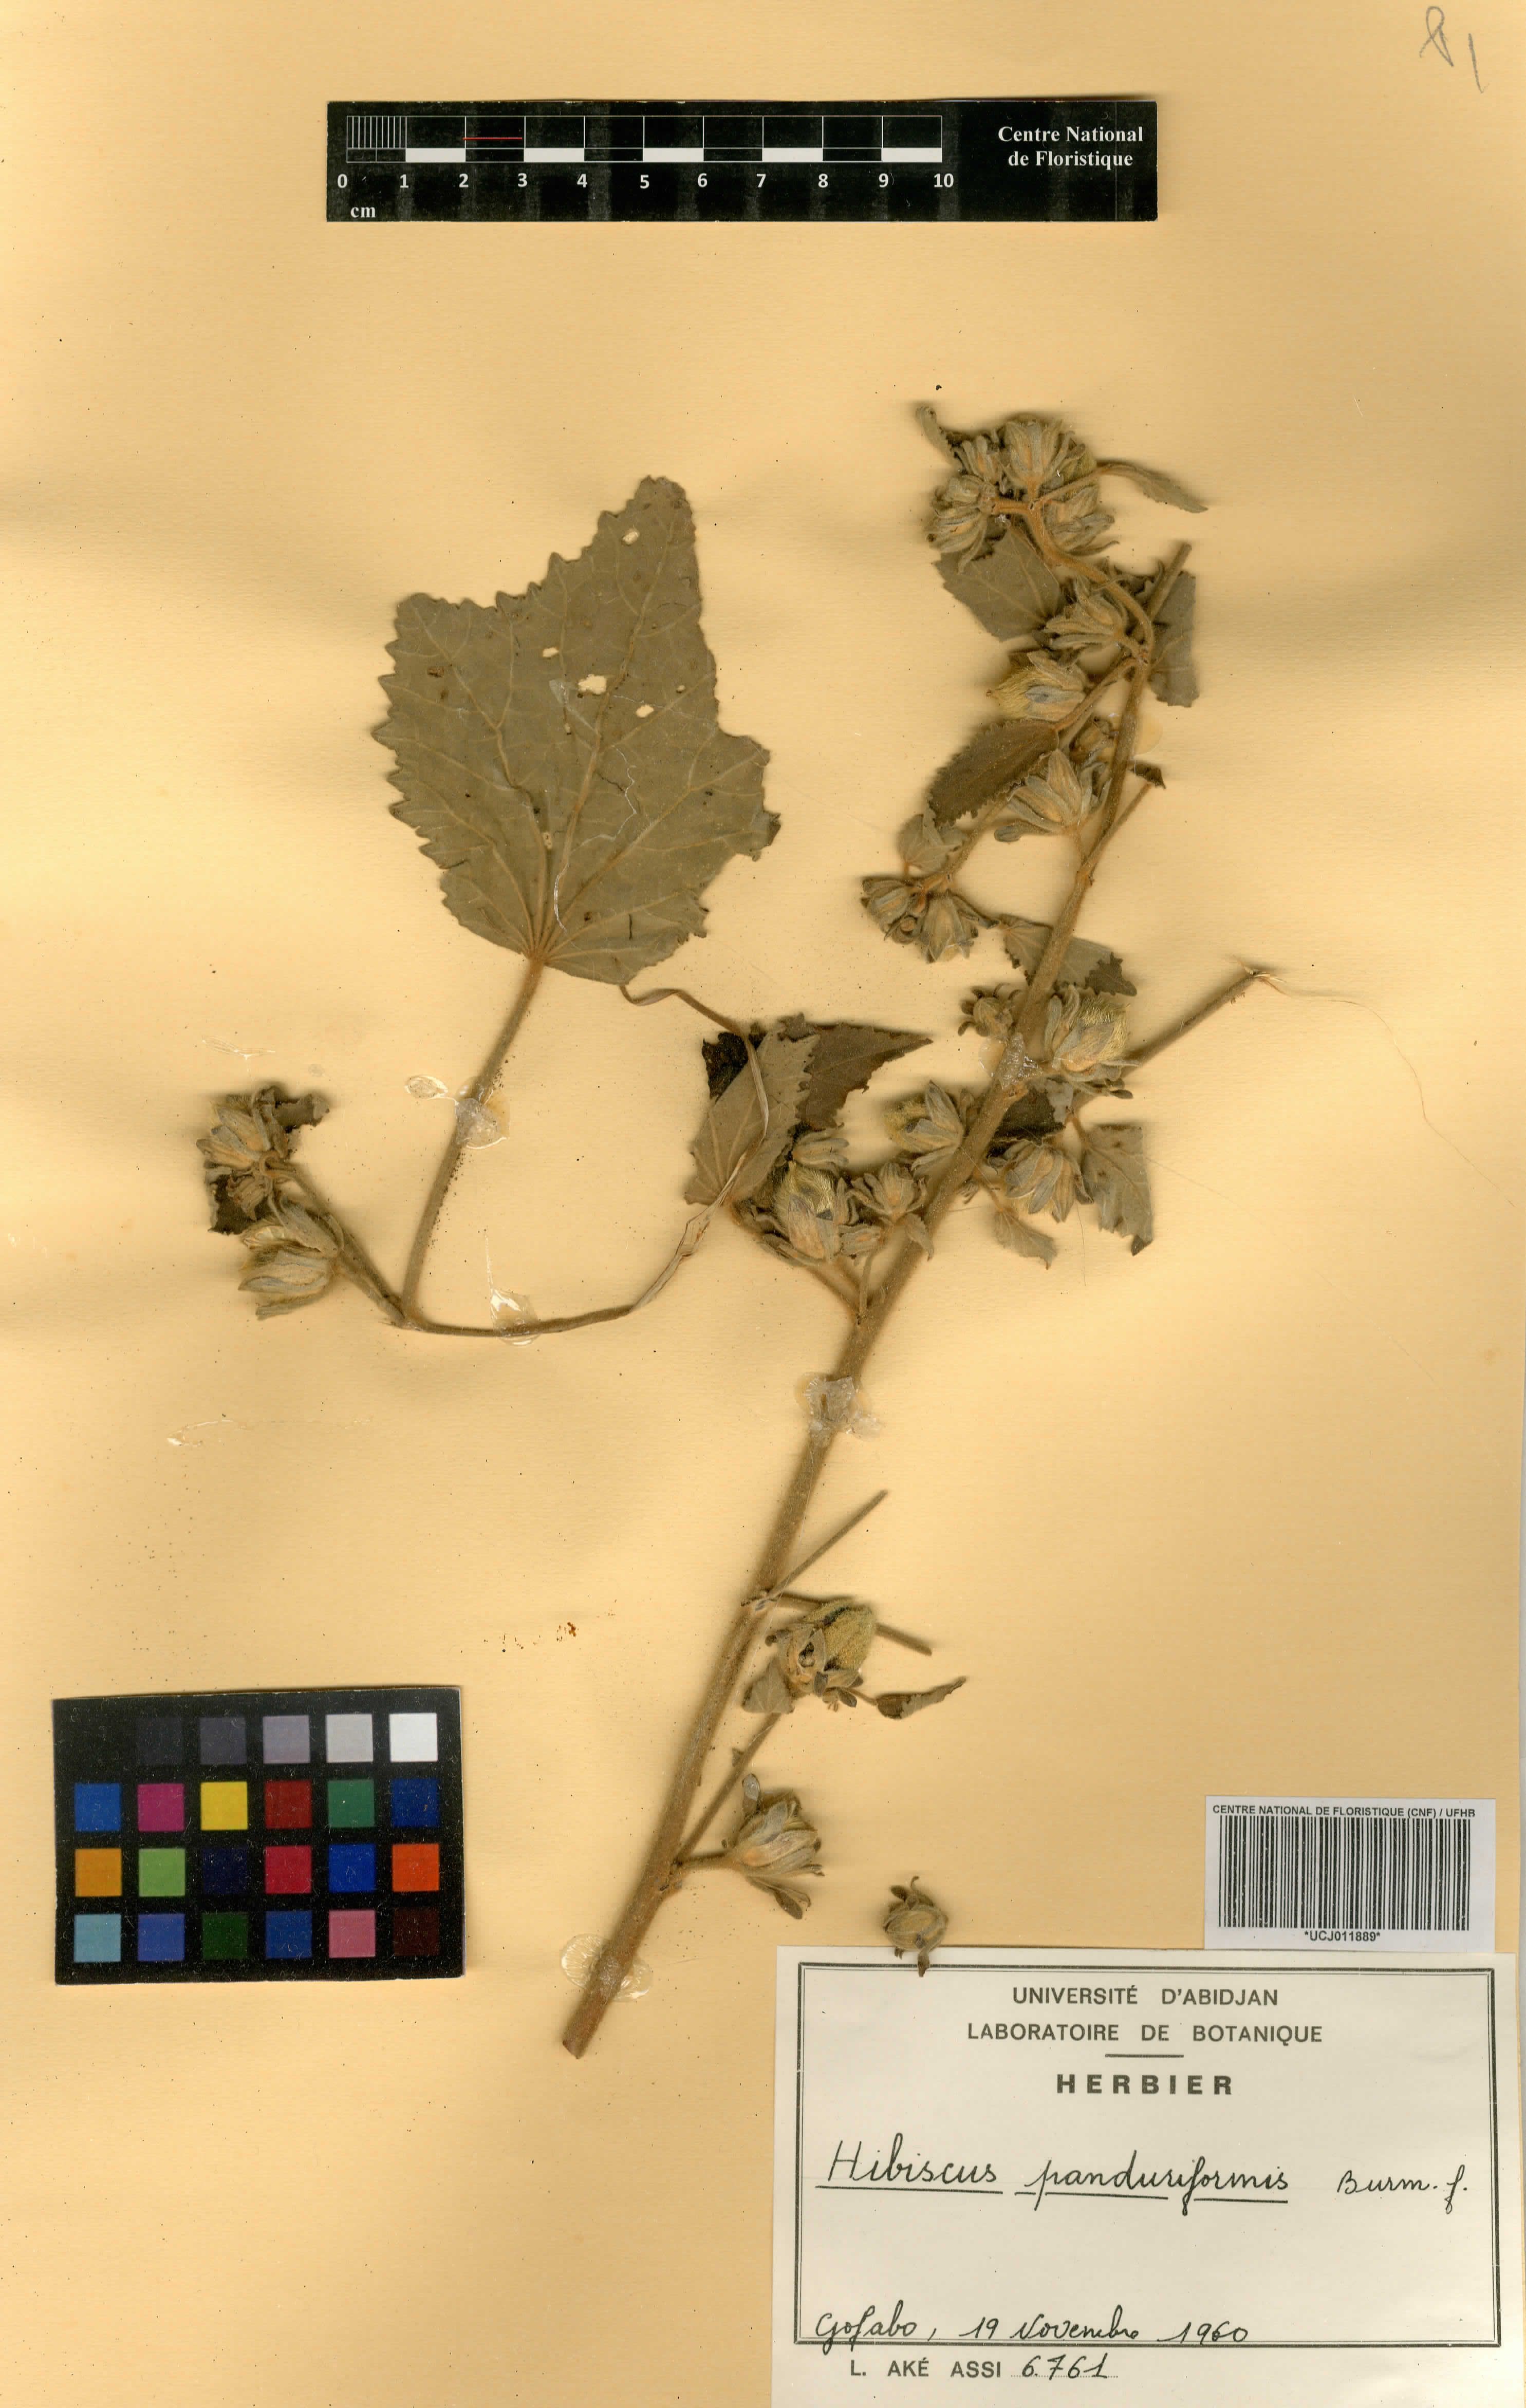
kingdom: Plantae
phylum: Tracheophyta
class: Magnoliopsida
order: Malvales
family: Malvaceae
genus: Hibiscus
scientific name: Hibiscus panduriformis
